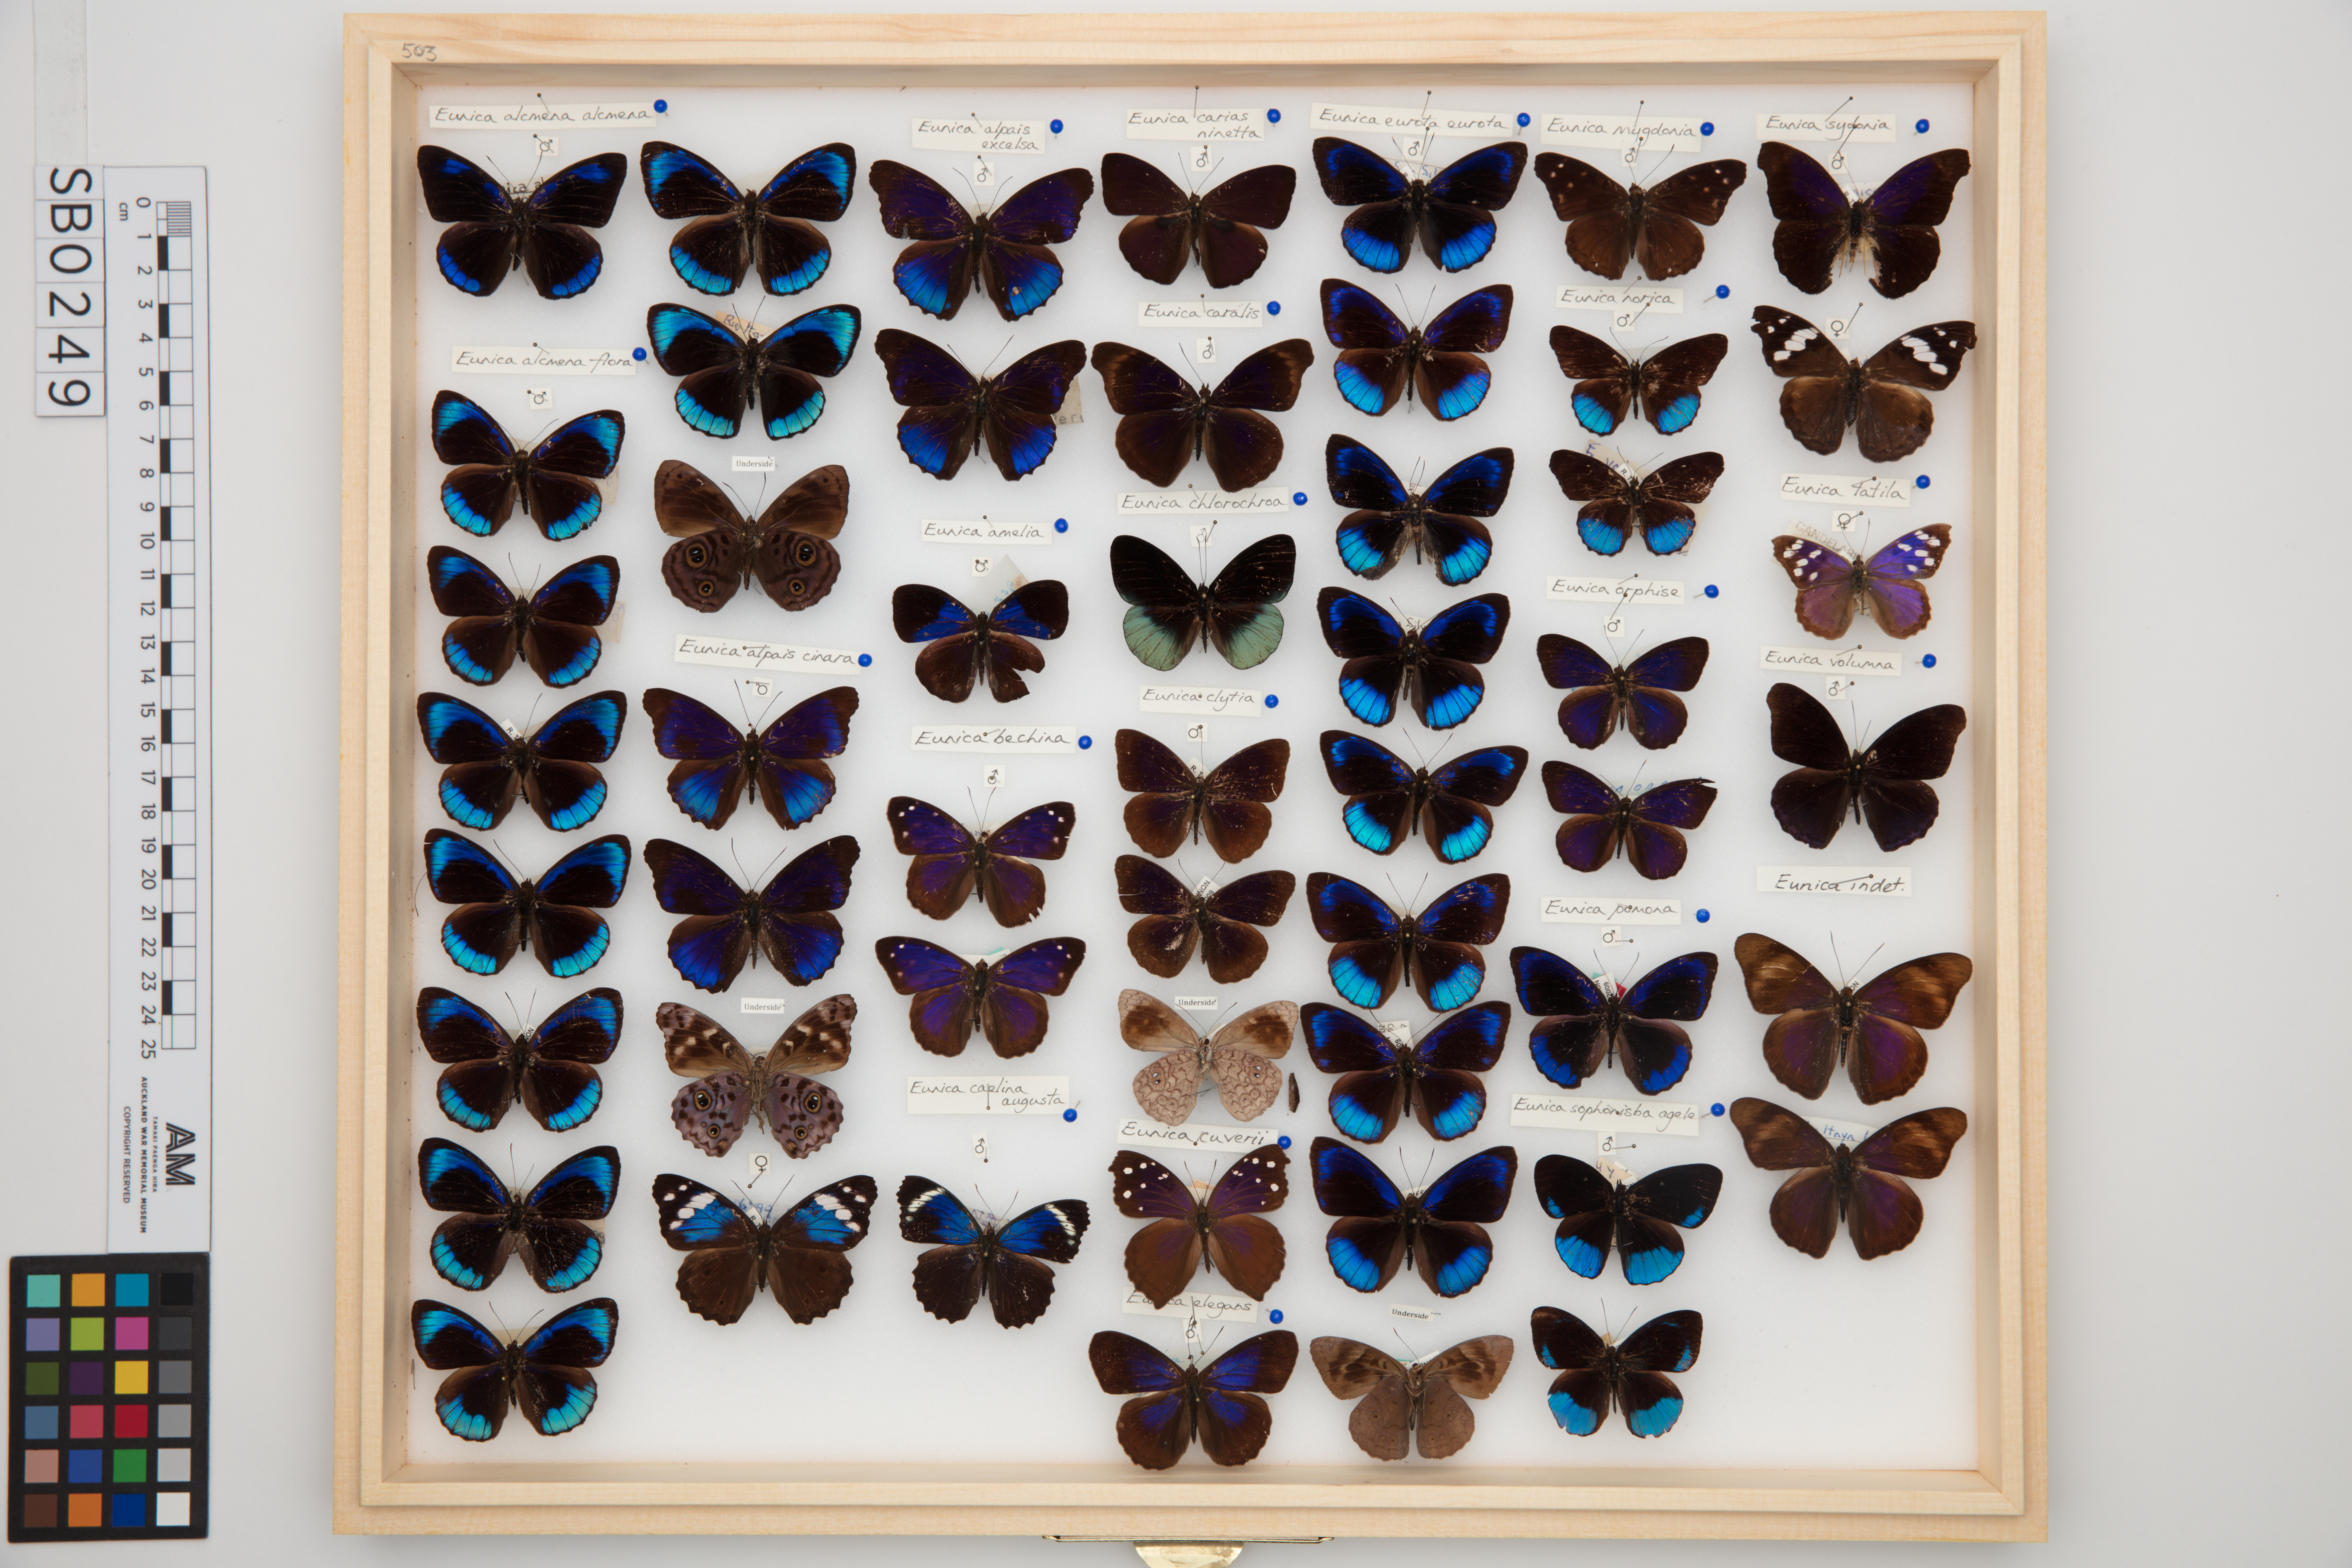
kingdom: Animalia
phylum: Arthropoda
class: Insecta
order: Lepidoptera
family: Nymphalidae
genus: Eunica
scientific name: Eunica eurota
